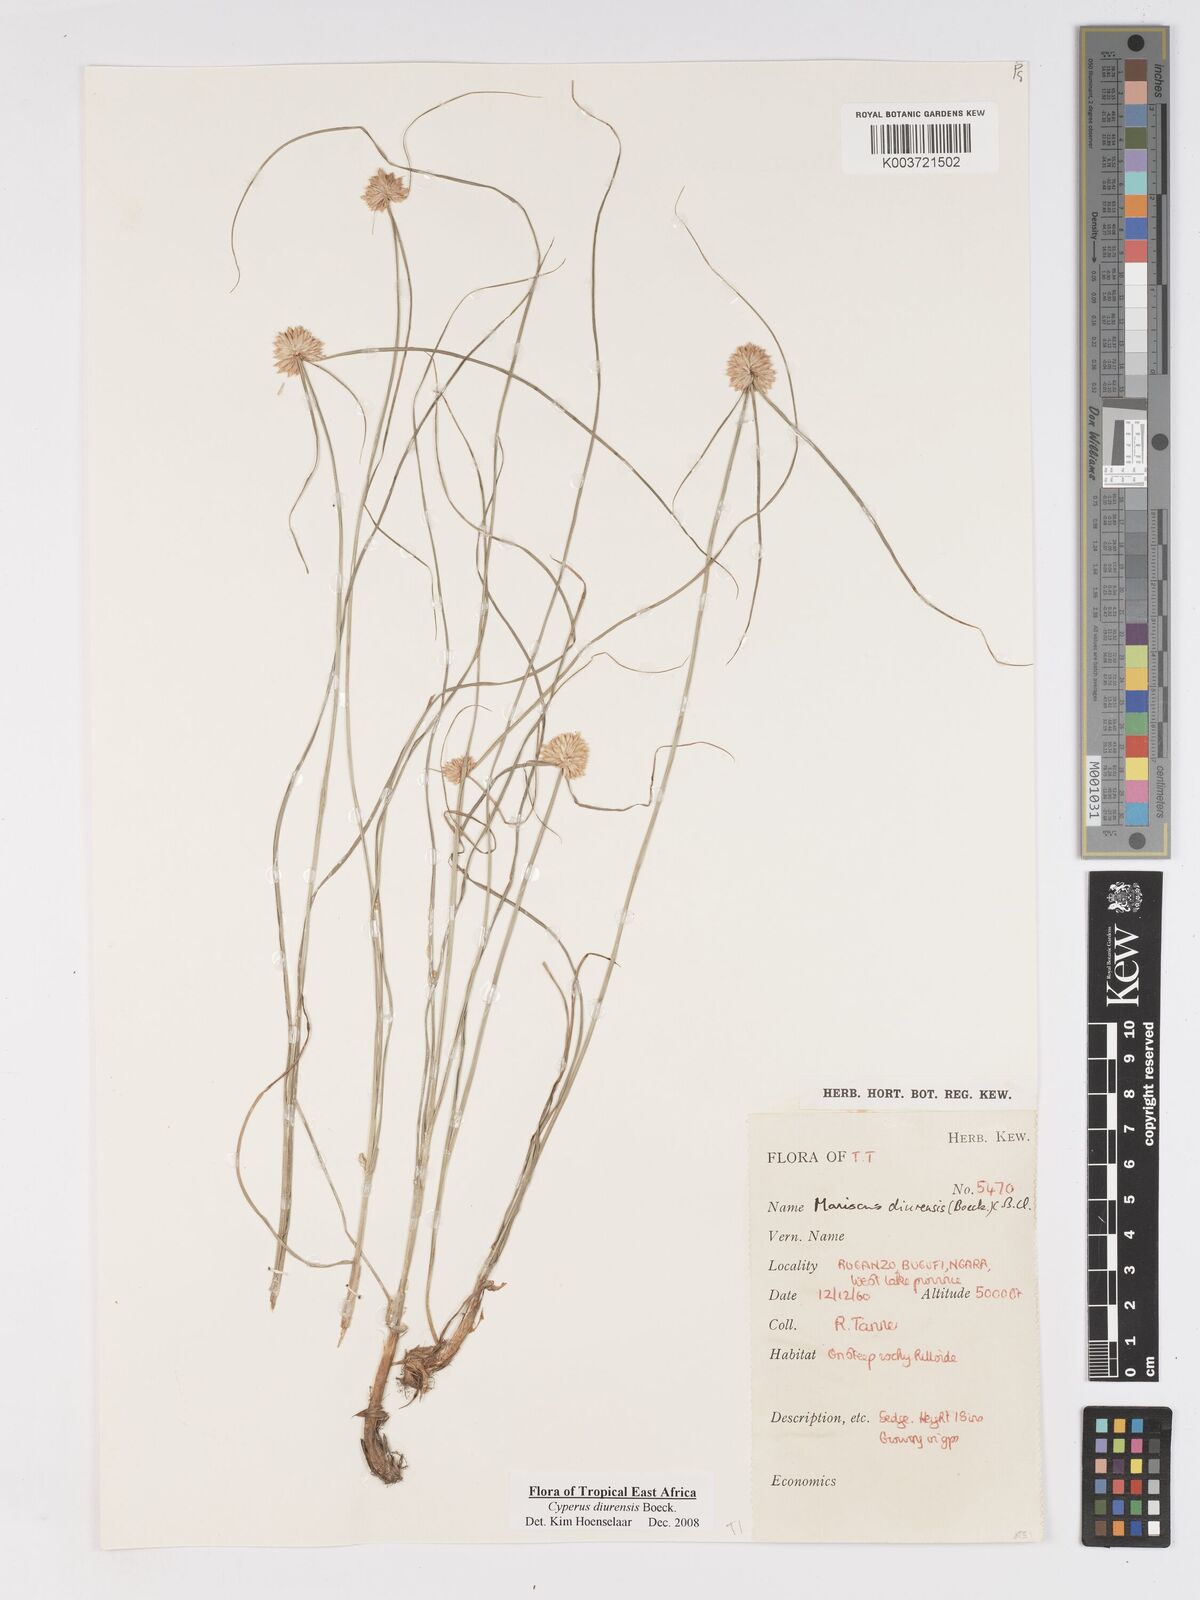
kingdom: Plantae
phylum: Tracheophyta
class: Liliopsida
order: Poales
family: Cyperaceae
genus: Cyperus
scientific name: Cyperus diurensis
